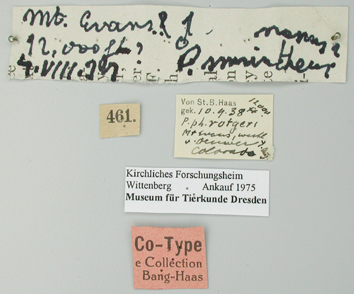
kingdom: Animalia
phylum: Arthropoda
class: Insecta
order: Lepidoptera
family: Papilionidae
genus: Parnassius
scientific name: Parnassius smintheus
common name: Mountain parnassian
